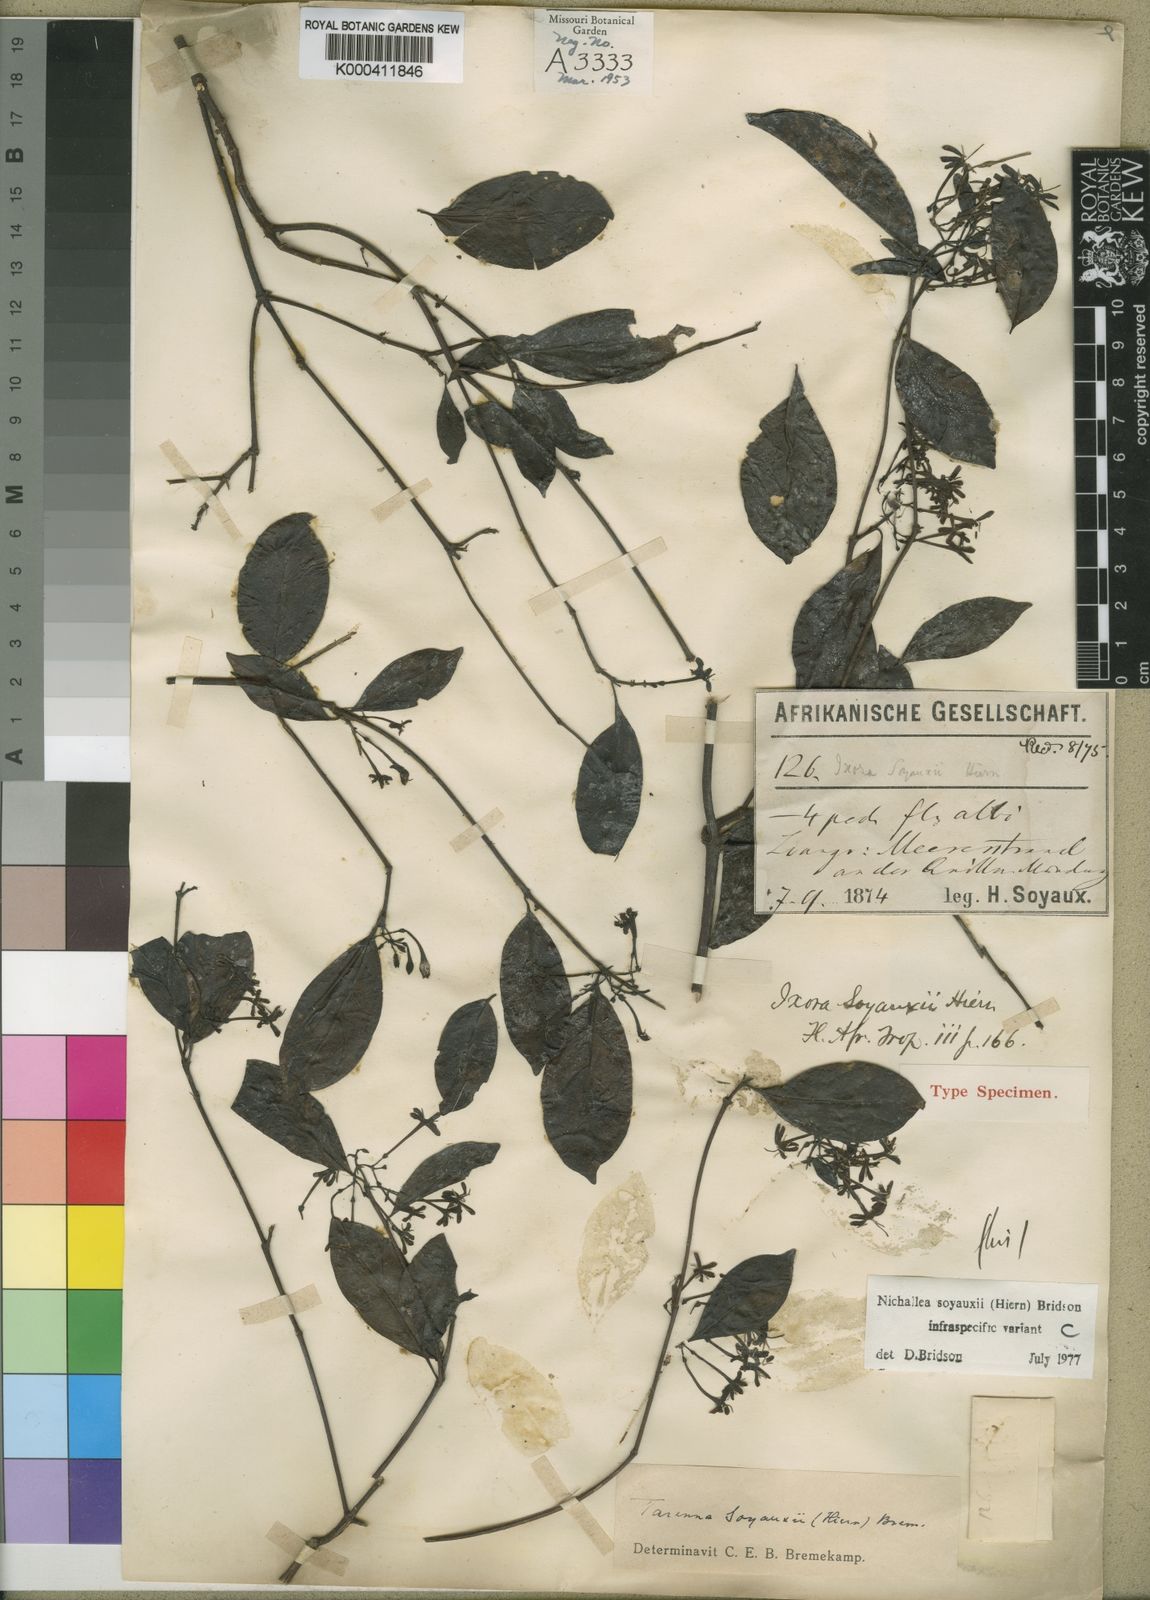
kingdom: Plantae
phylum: Tracheophyta
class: Magnoliopsida
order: Gentianales
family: Rubiaceae
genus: Nichallea
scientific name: Nichallea soyauxii
